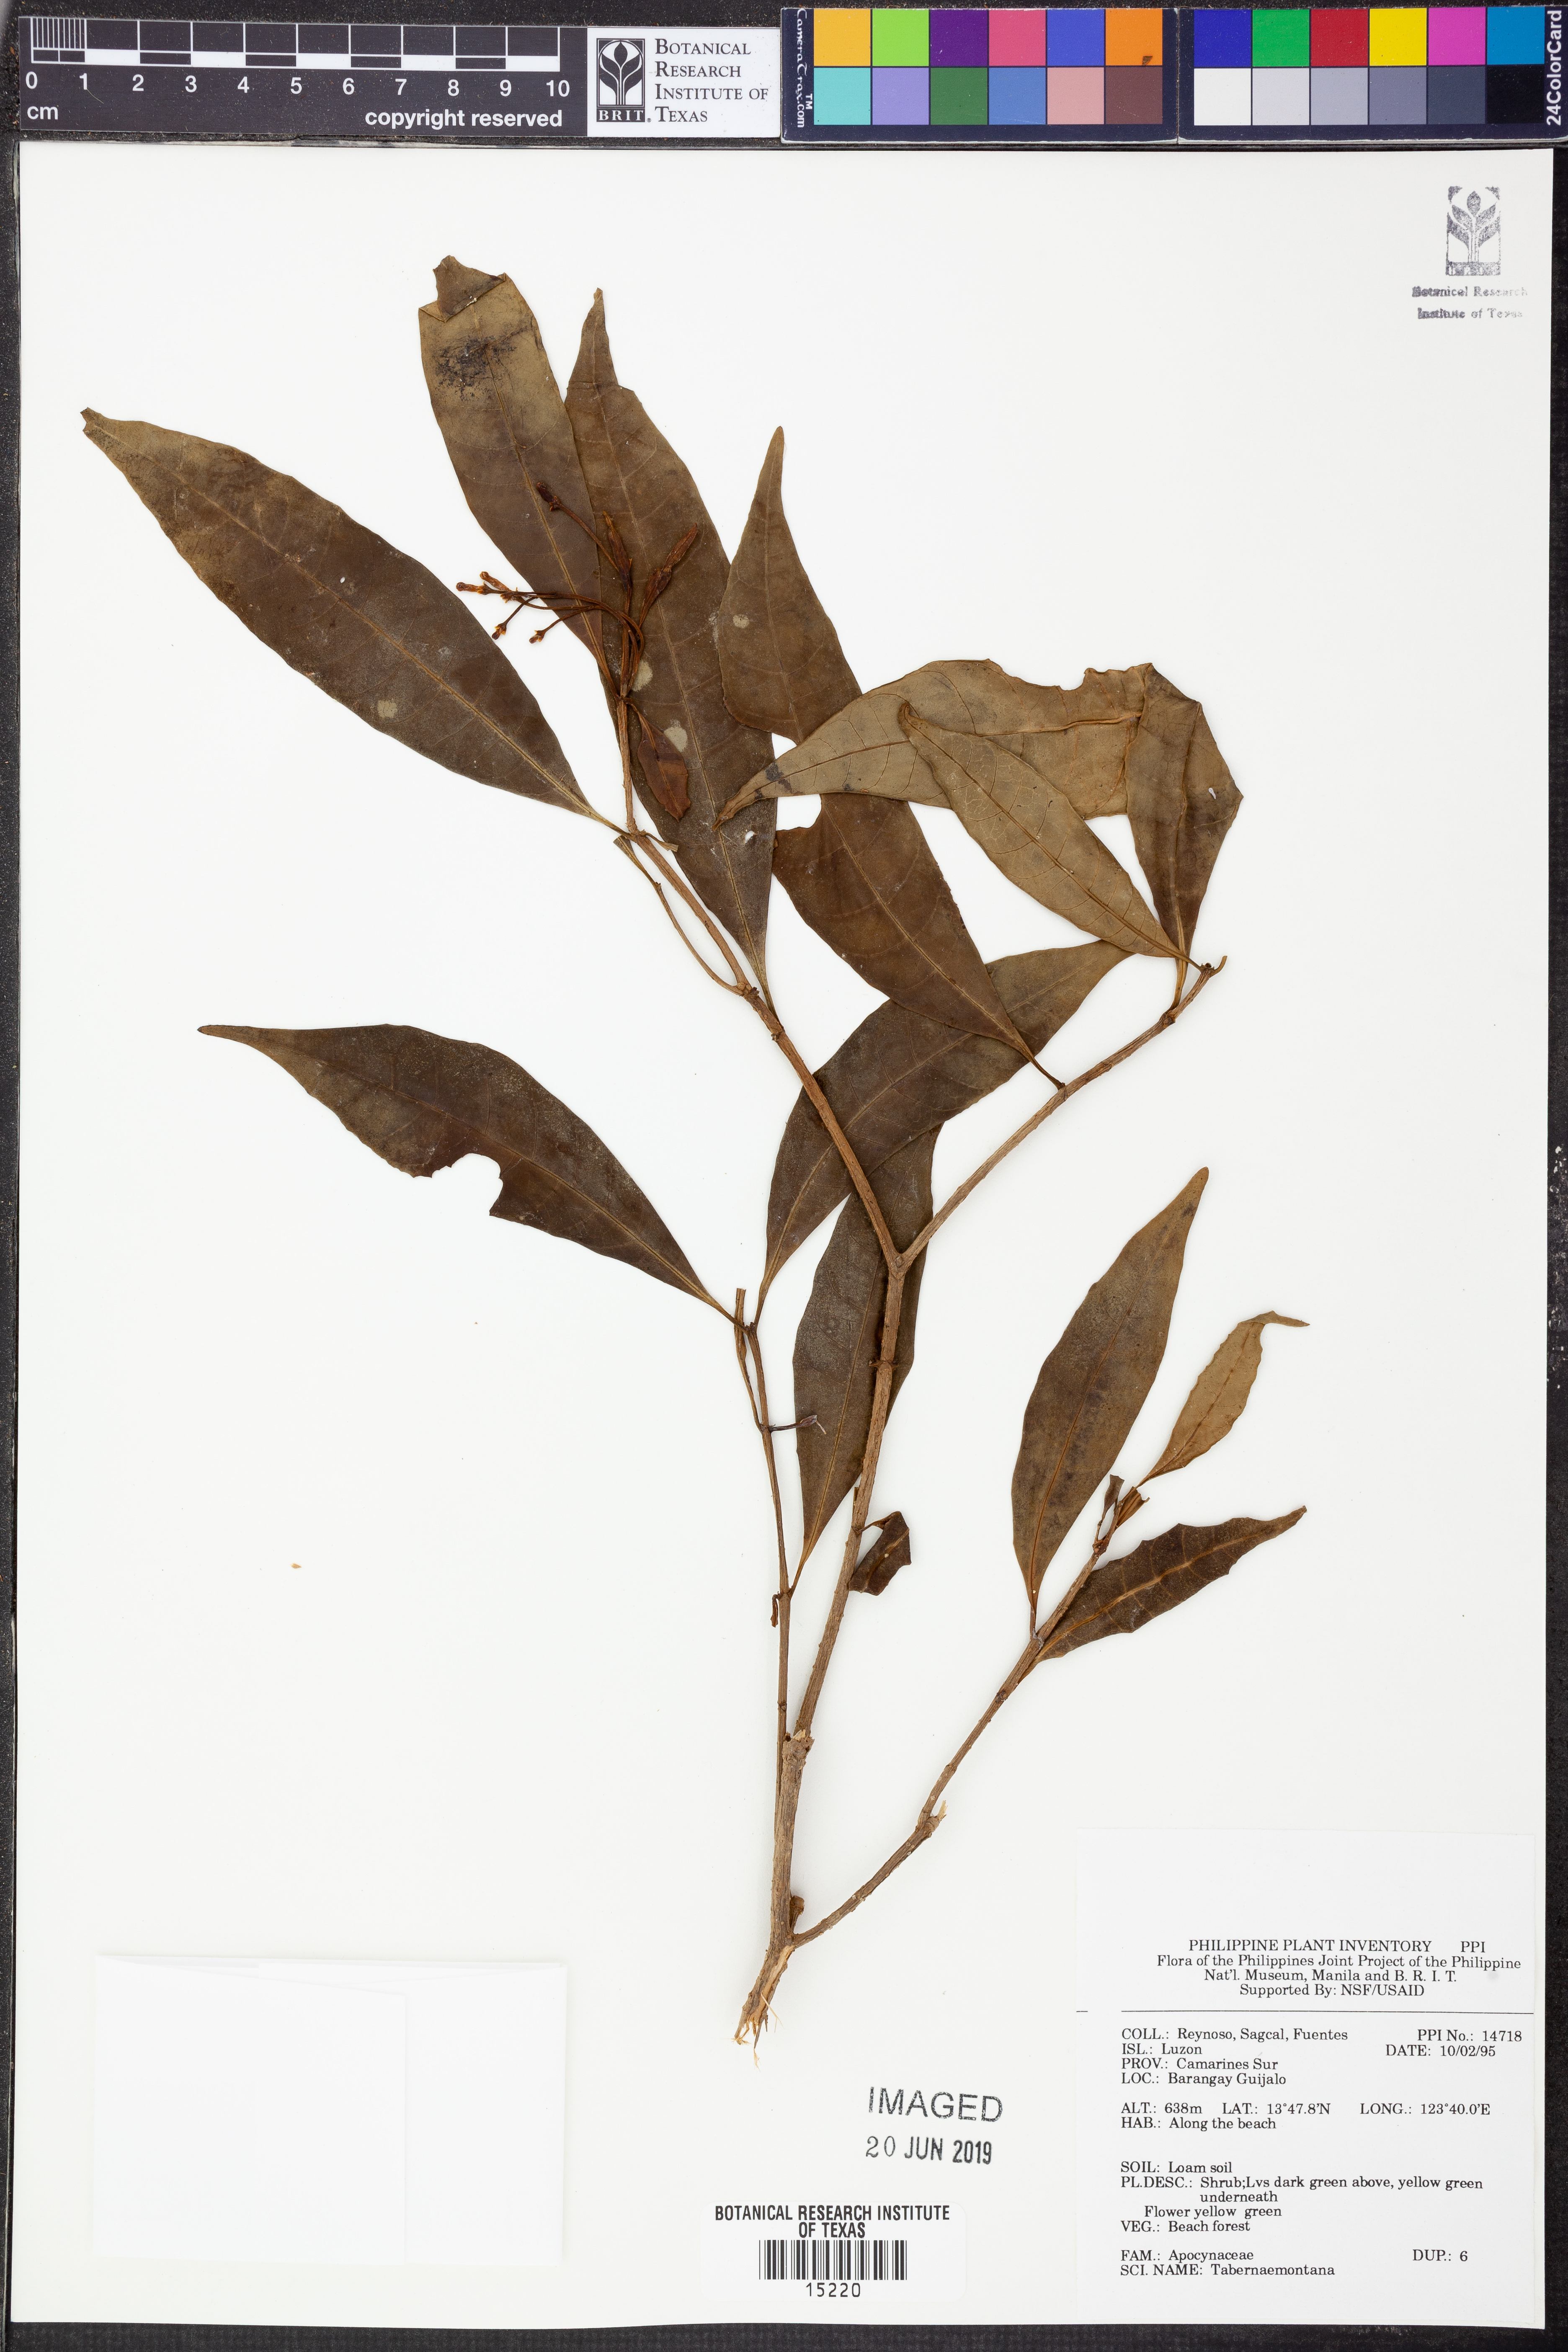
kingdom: Plantae
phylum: Tracheophyta
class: Magnoliopsida
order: Gentianales
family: Apocynaceae
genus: Tabernaemontana
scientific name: Tabernaemontana
